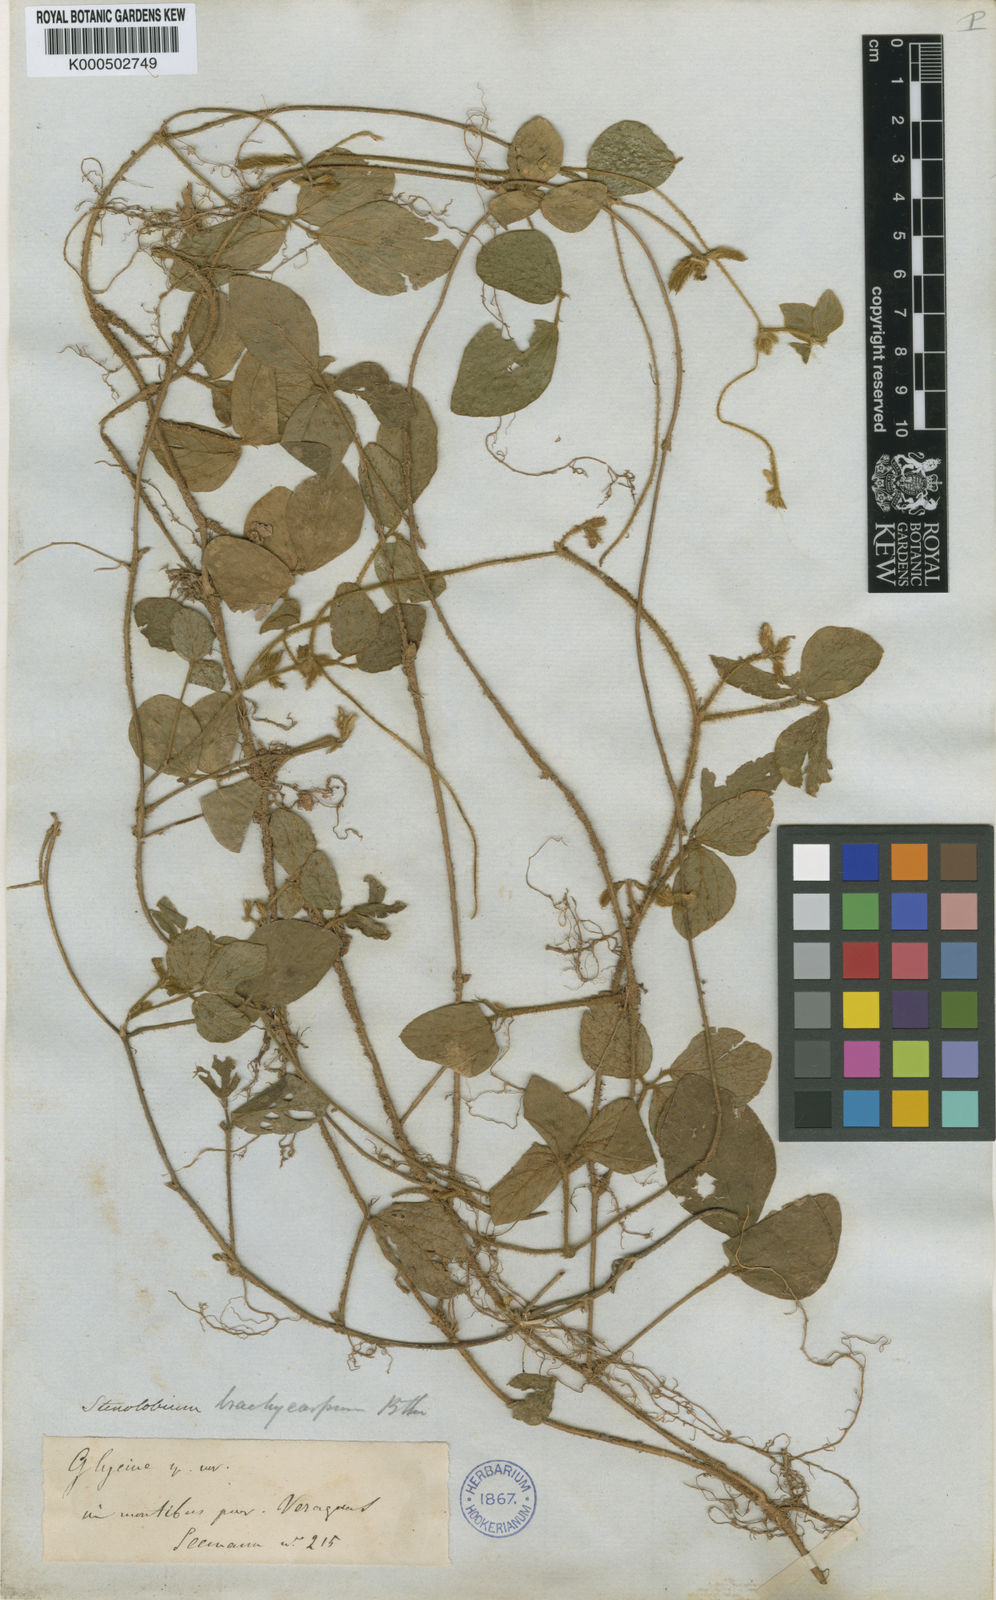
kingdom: Plantae
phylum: Tracheophyta
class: Magnoliopsida
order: Fabales
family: Fabaceae
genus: Calopogonium
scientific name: Calopogonium mucunoides
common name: Calopo
